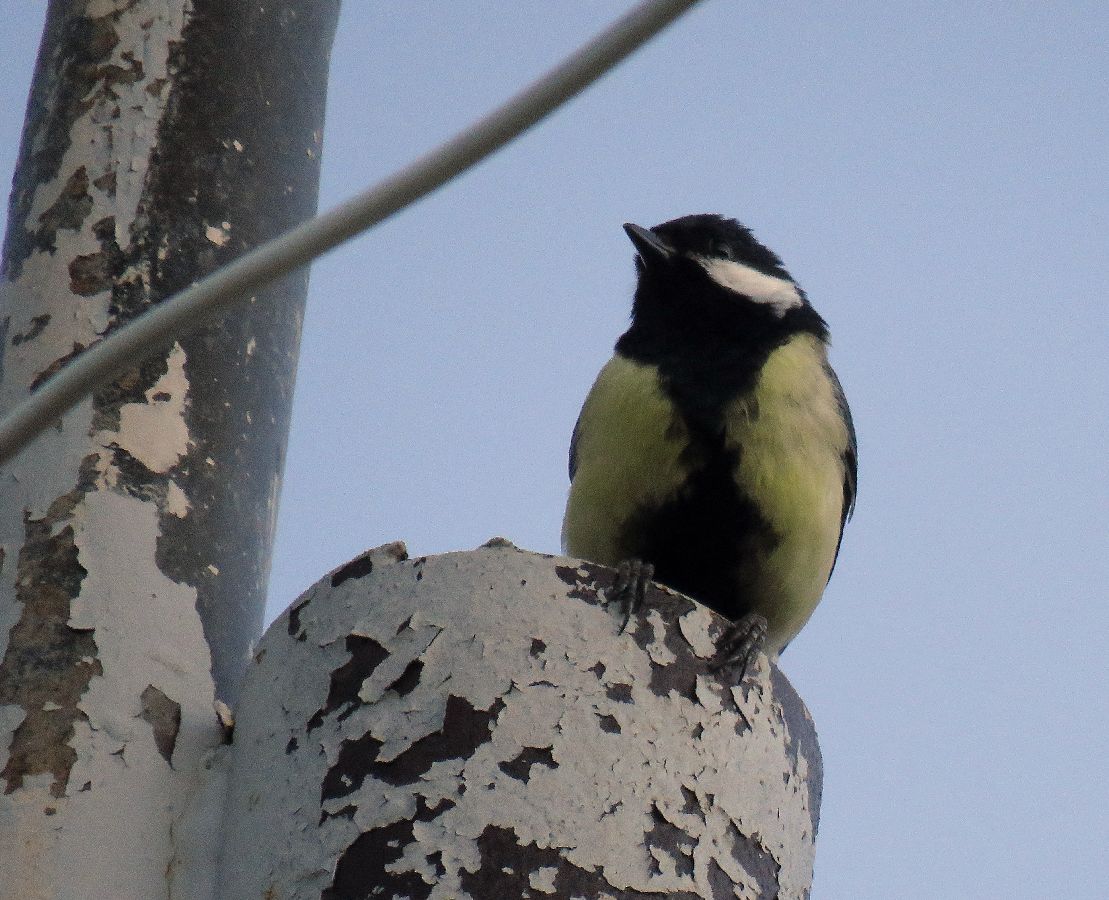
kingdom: Animalia
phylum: Chordata
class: Aves
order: Passeriformes
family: Paridae
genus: Parus
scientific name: Parus major
